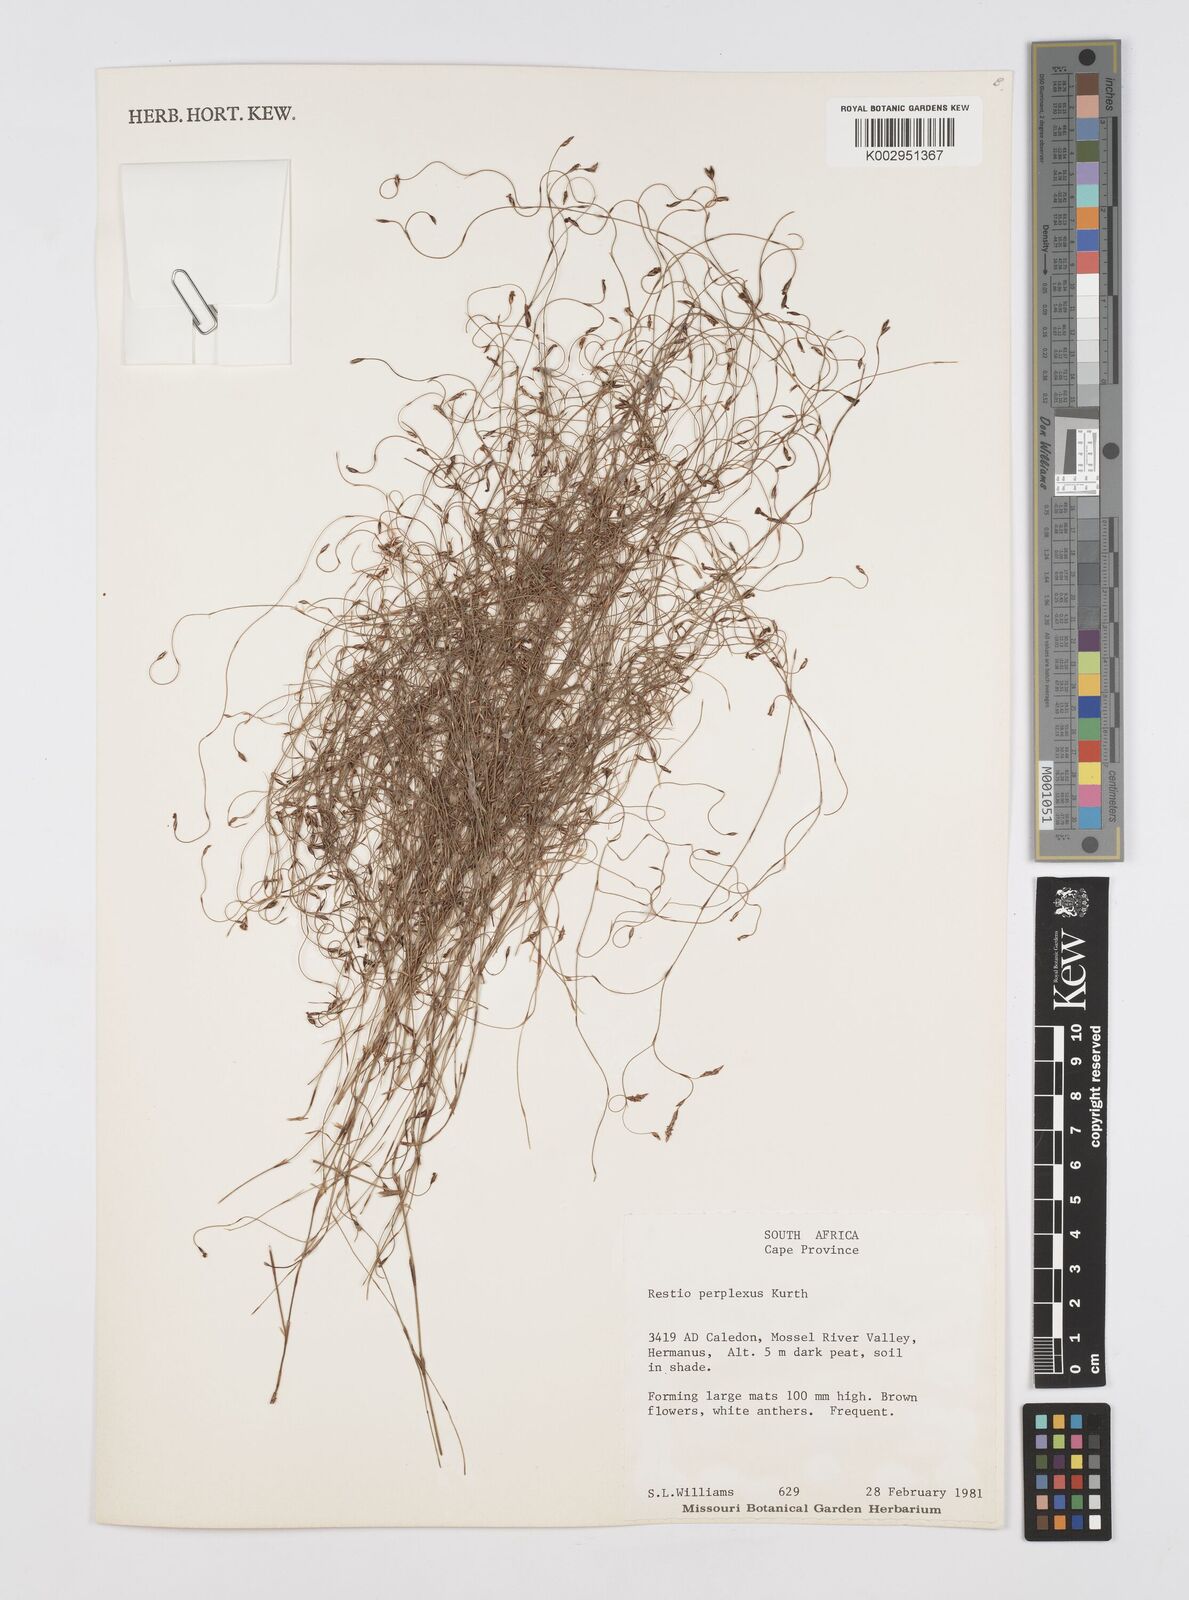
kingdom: Plantae
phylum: Tracheophyta
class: Liliopsida
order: Poales
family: Restionaceae
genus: Restio
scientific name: Restio perplexus
